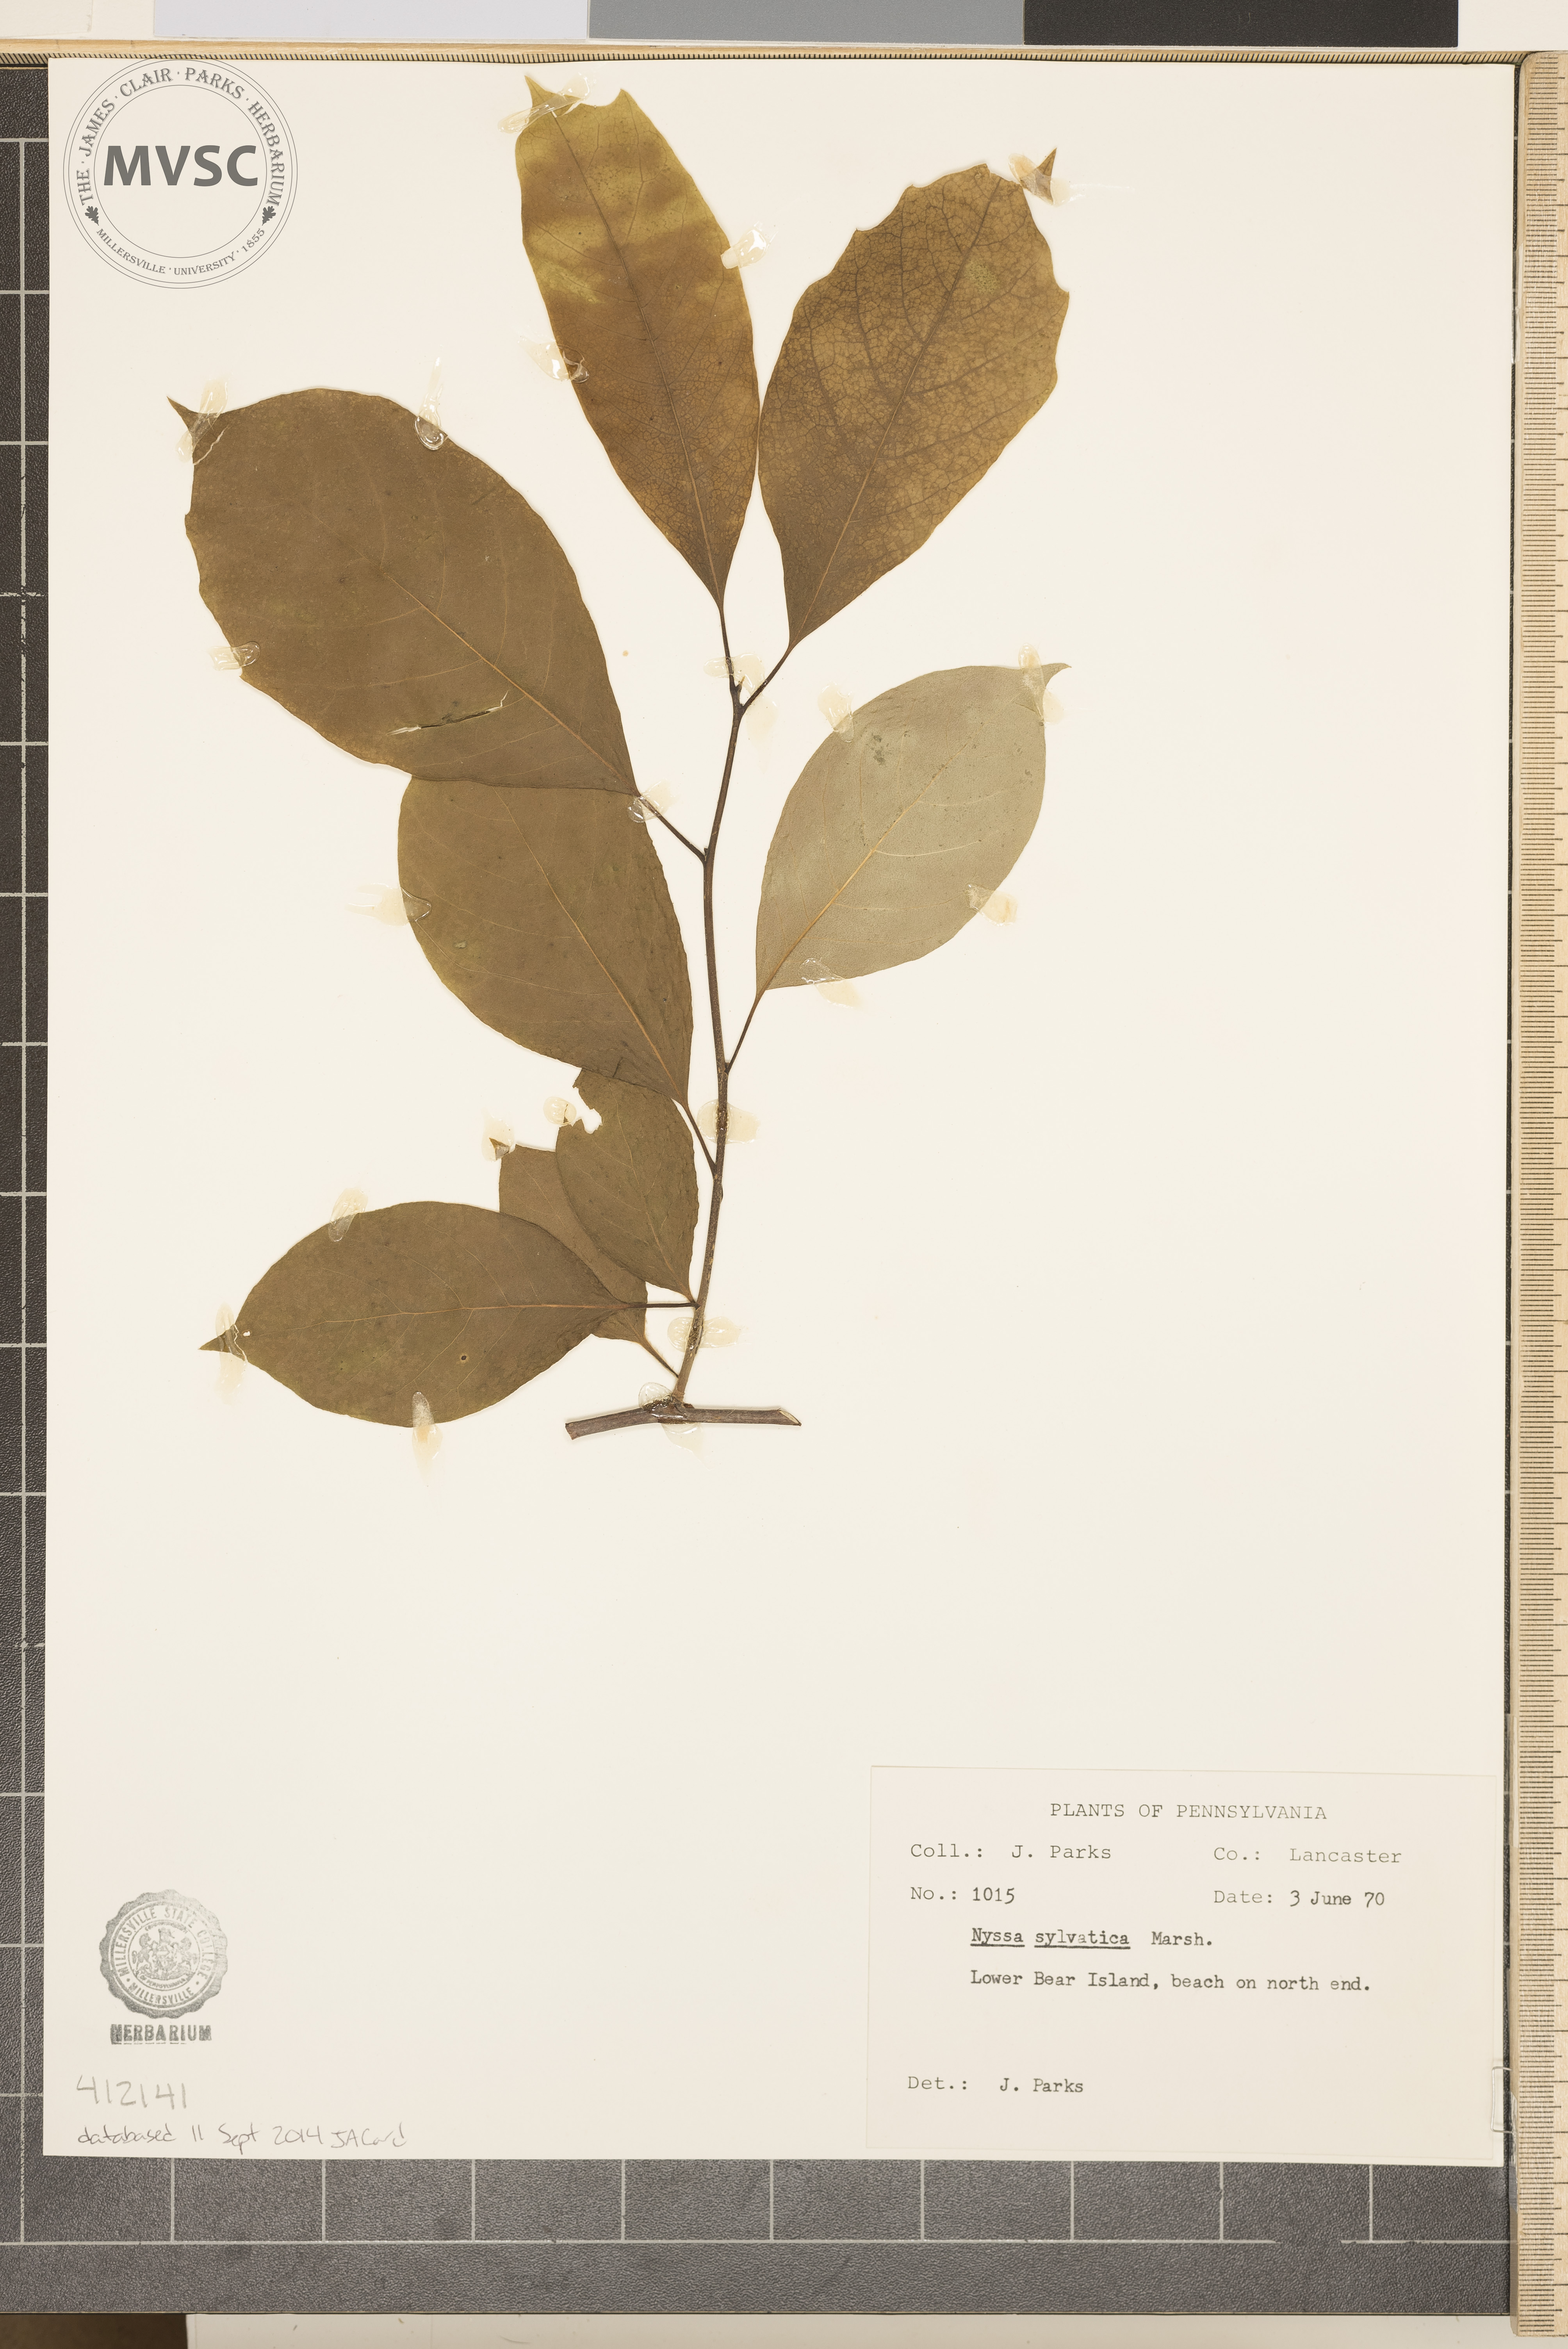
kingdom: Plantae
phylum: Tracheophyta
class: Magnoliopsida
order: Cornales
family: Nyssaceae
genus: Nyssa
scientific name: Nyssa sylvatica
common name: Black tupelo
